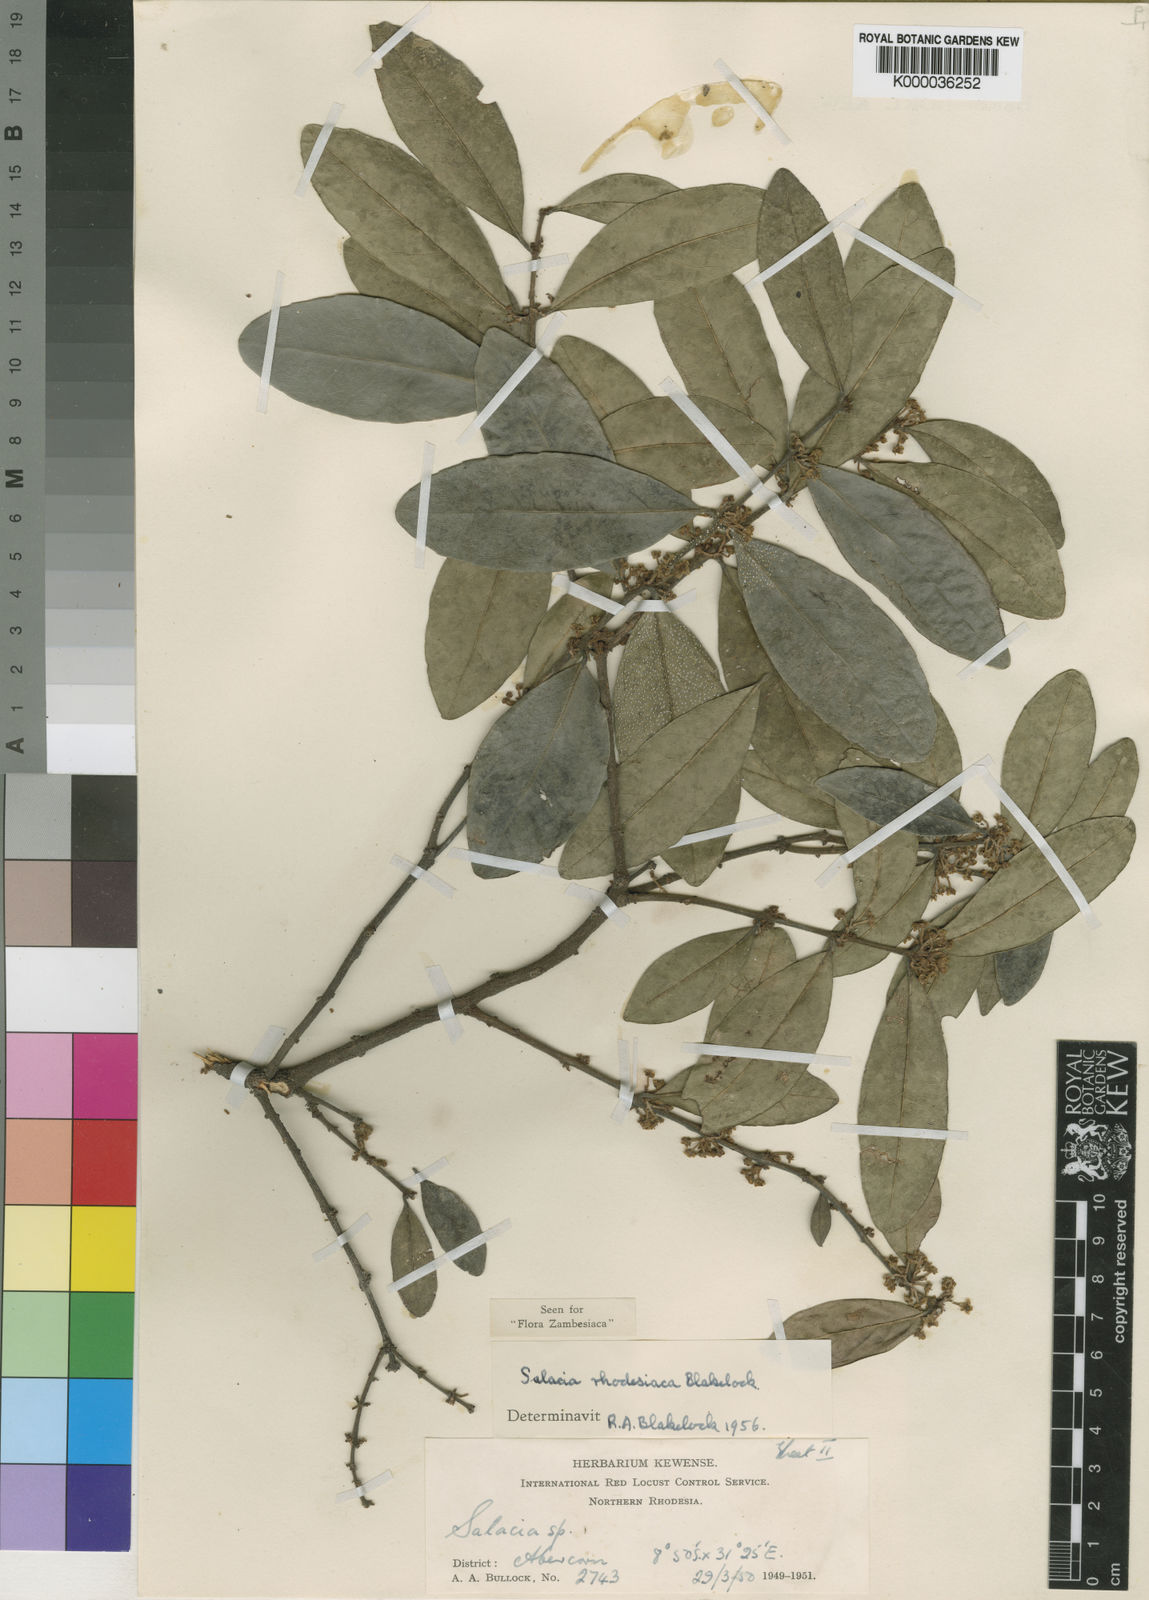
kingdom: Plantae
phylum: Tracheophyta
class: Magnoliopsida
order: Celastrales
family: Celastraceae
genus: Salacia
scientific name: Salacia rhodesiaca
